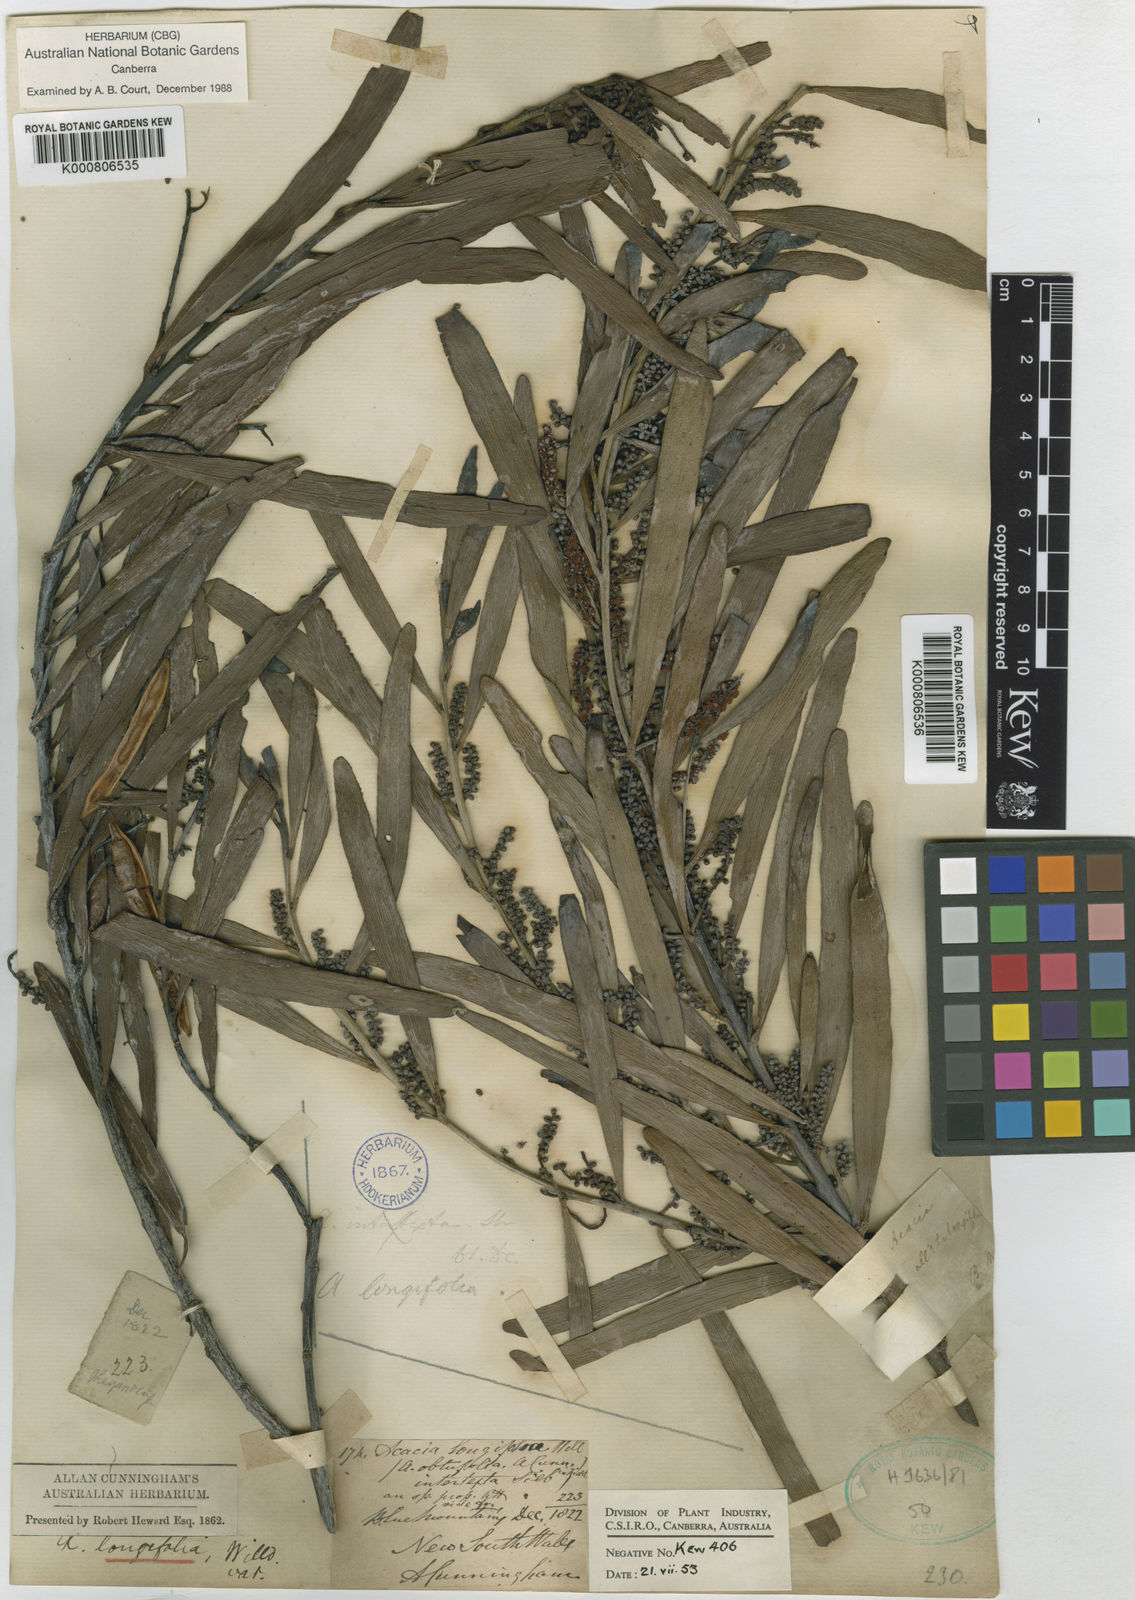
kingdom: Plantae
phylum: Tracheophyta
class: Magnoliopsida
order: Fabales
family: Fabaceae
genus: Acacia
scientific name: Acacia obtusifolia
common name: Stiff-leaf wattle
